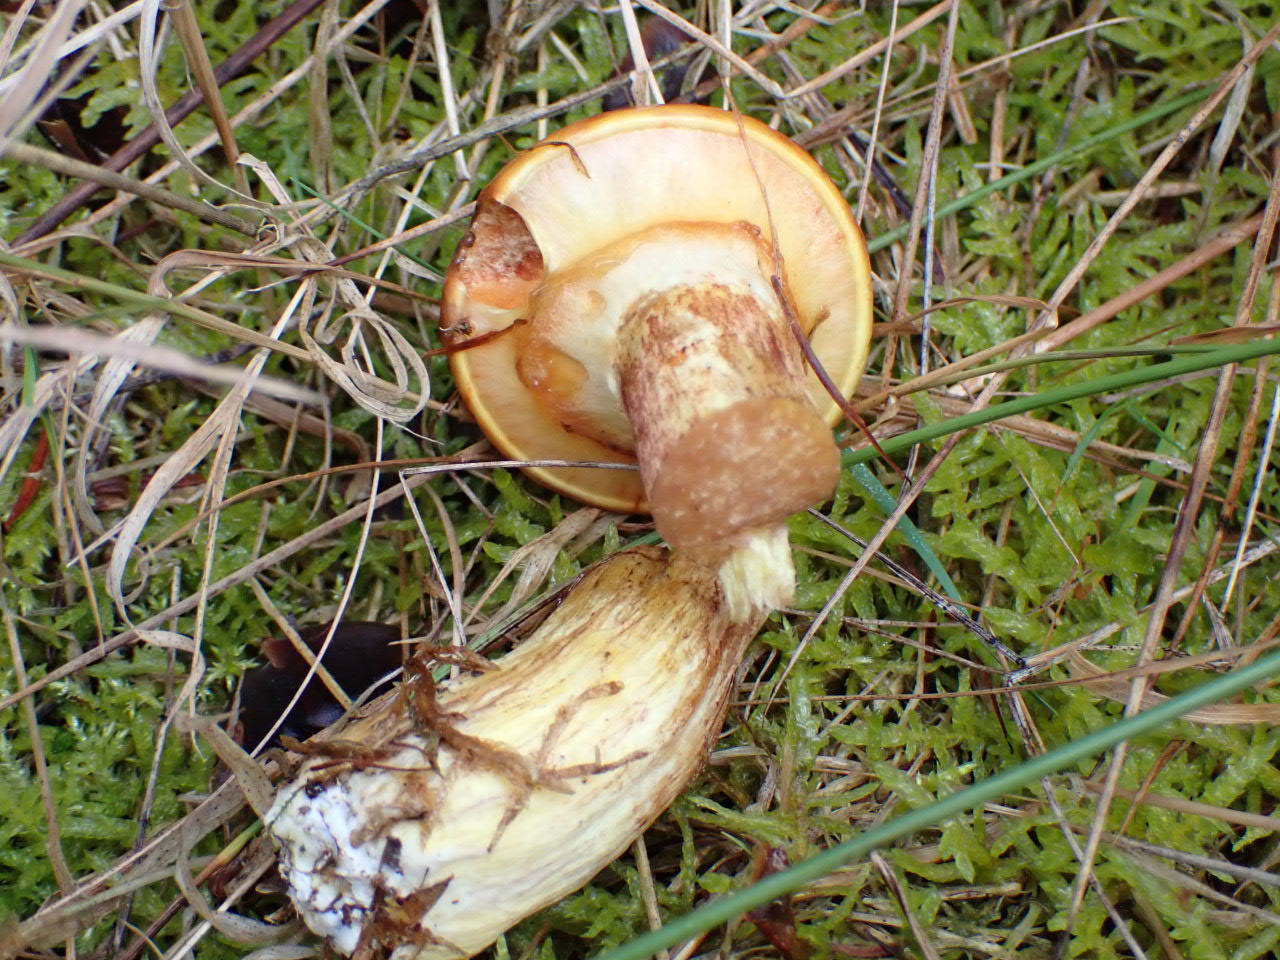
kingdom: Fungi
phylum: Basidiomycota
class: Agaricomycetes
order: Boletales
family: Suillaceae
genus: Suillus
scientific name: Suillus grevillei
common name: lærke-slimrørhat
